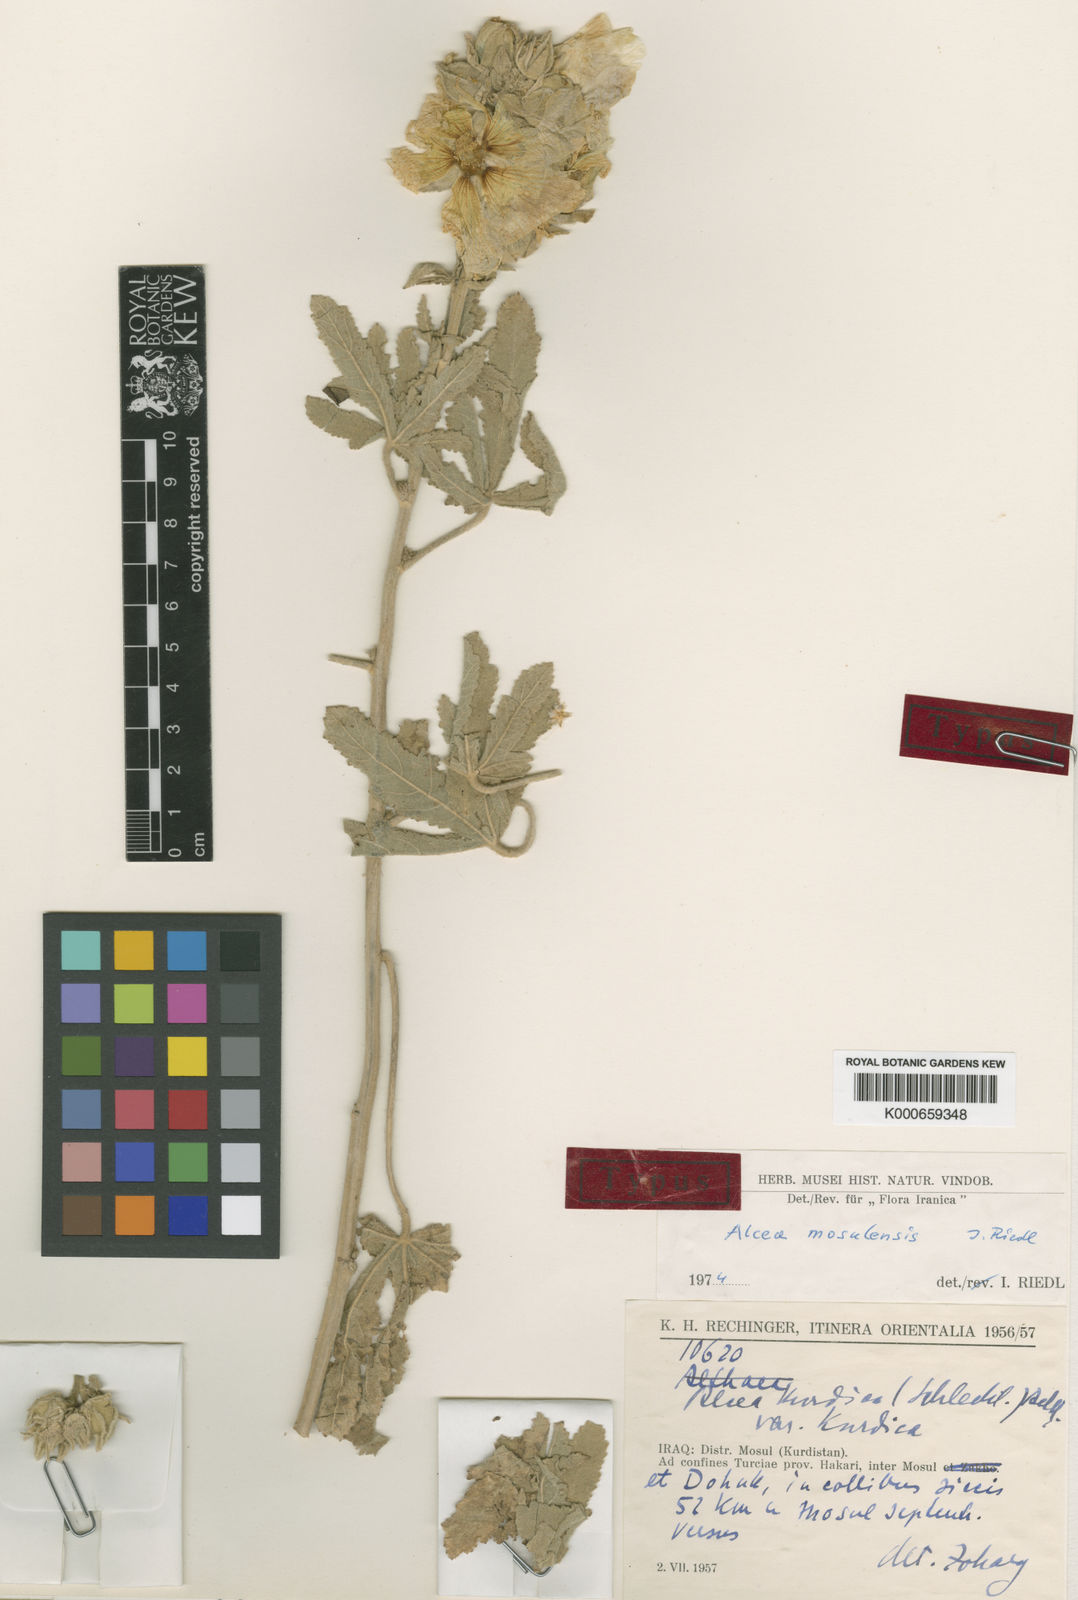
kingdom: Plantae
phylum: Tracheophyta
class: Magnoliopsida
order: Malvales
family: Malvaceae
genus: Alcea
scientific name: Alcea kurdica
